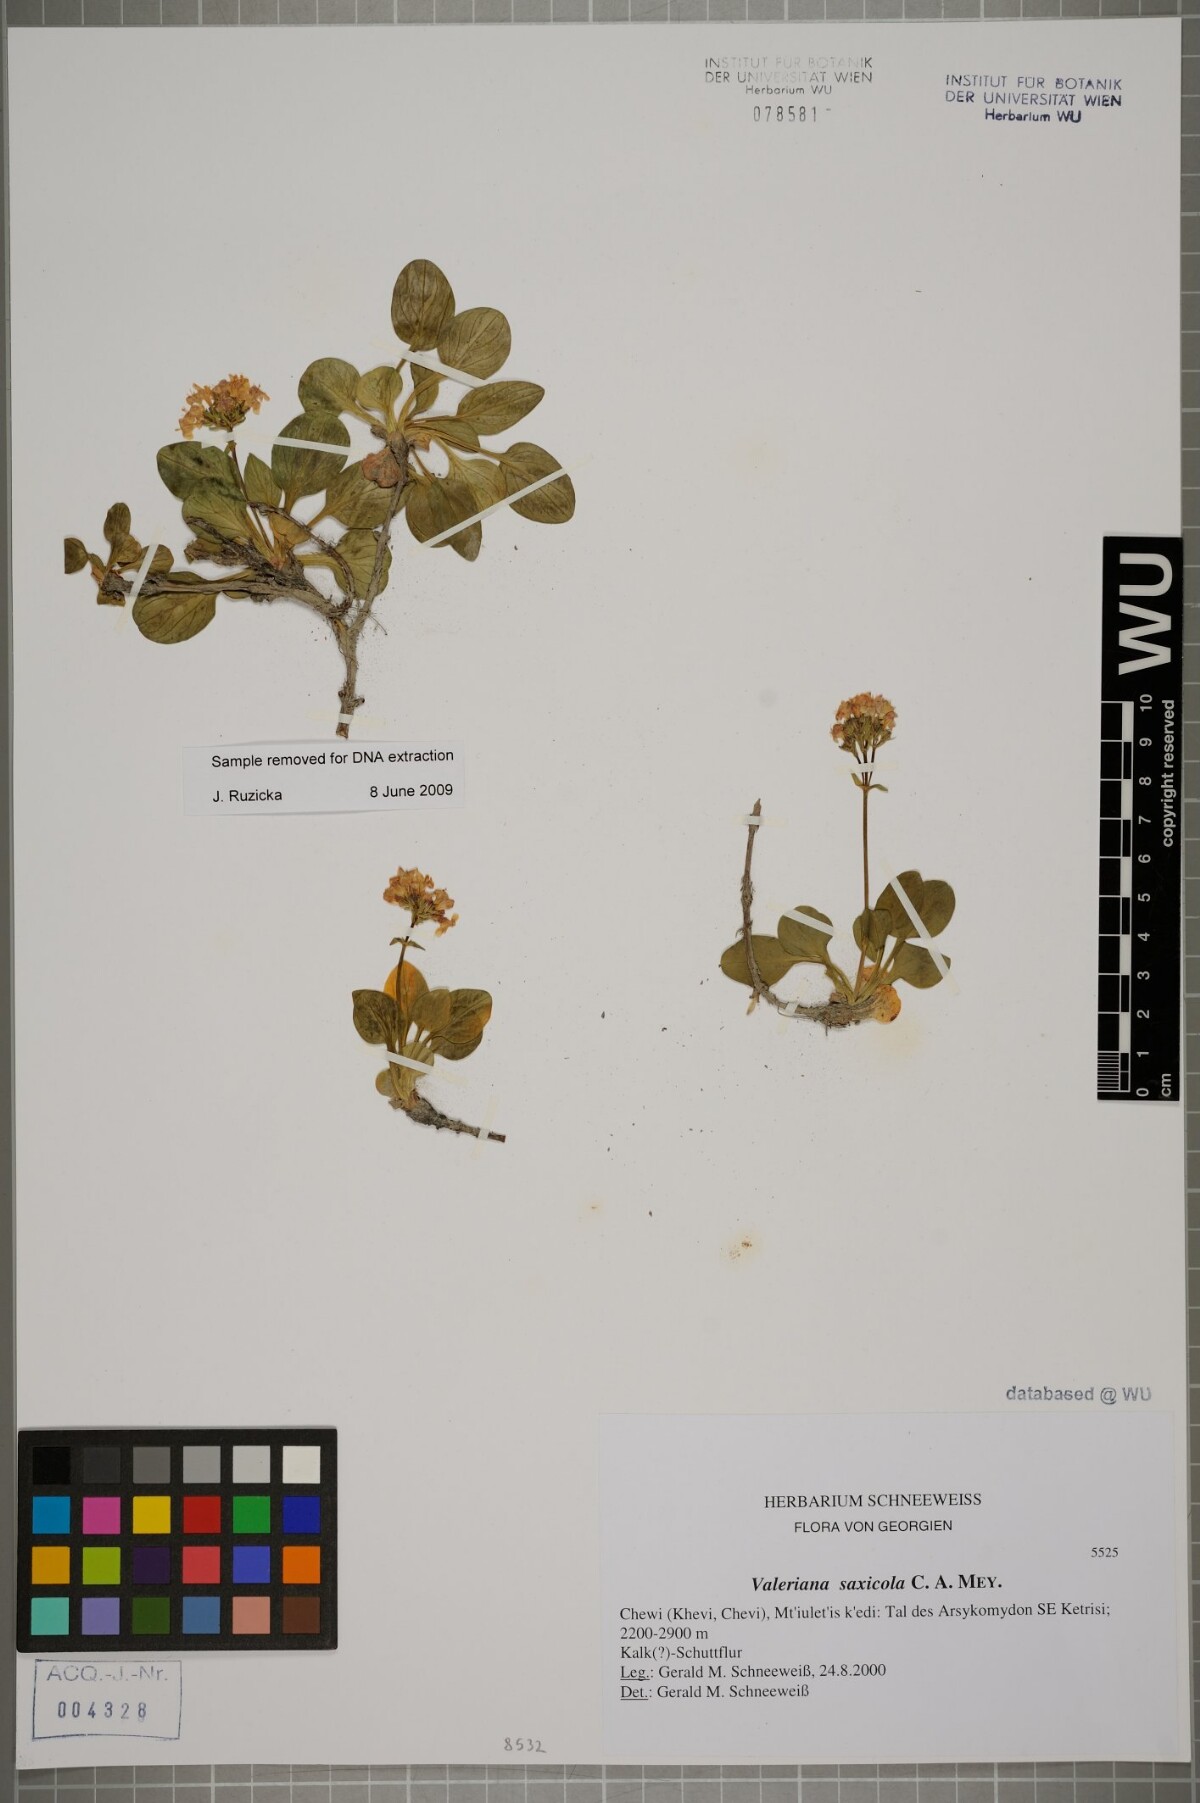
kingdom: Plantae
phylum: Tracheophyta
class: Magnoliopsida
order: Dipsacales
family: Caprifoliaceae
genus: Valeriana
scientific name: Valeriana saxicola
